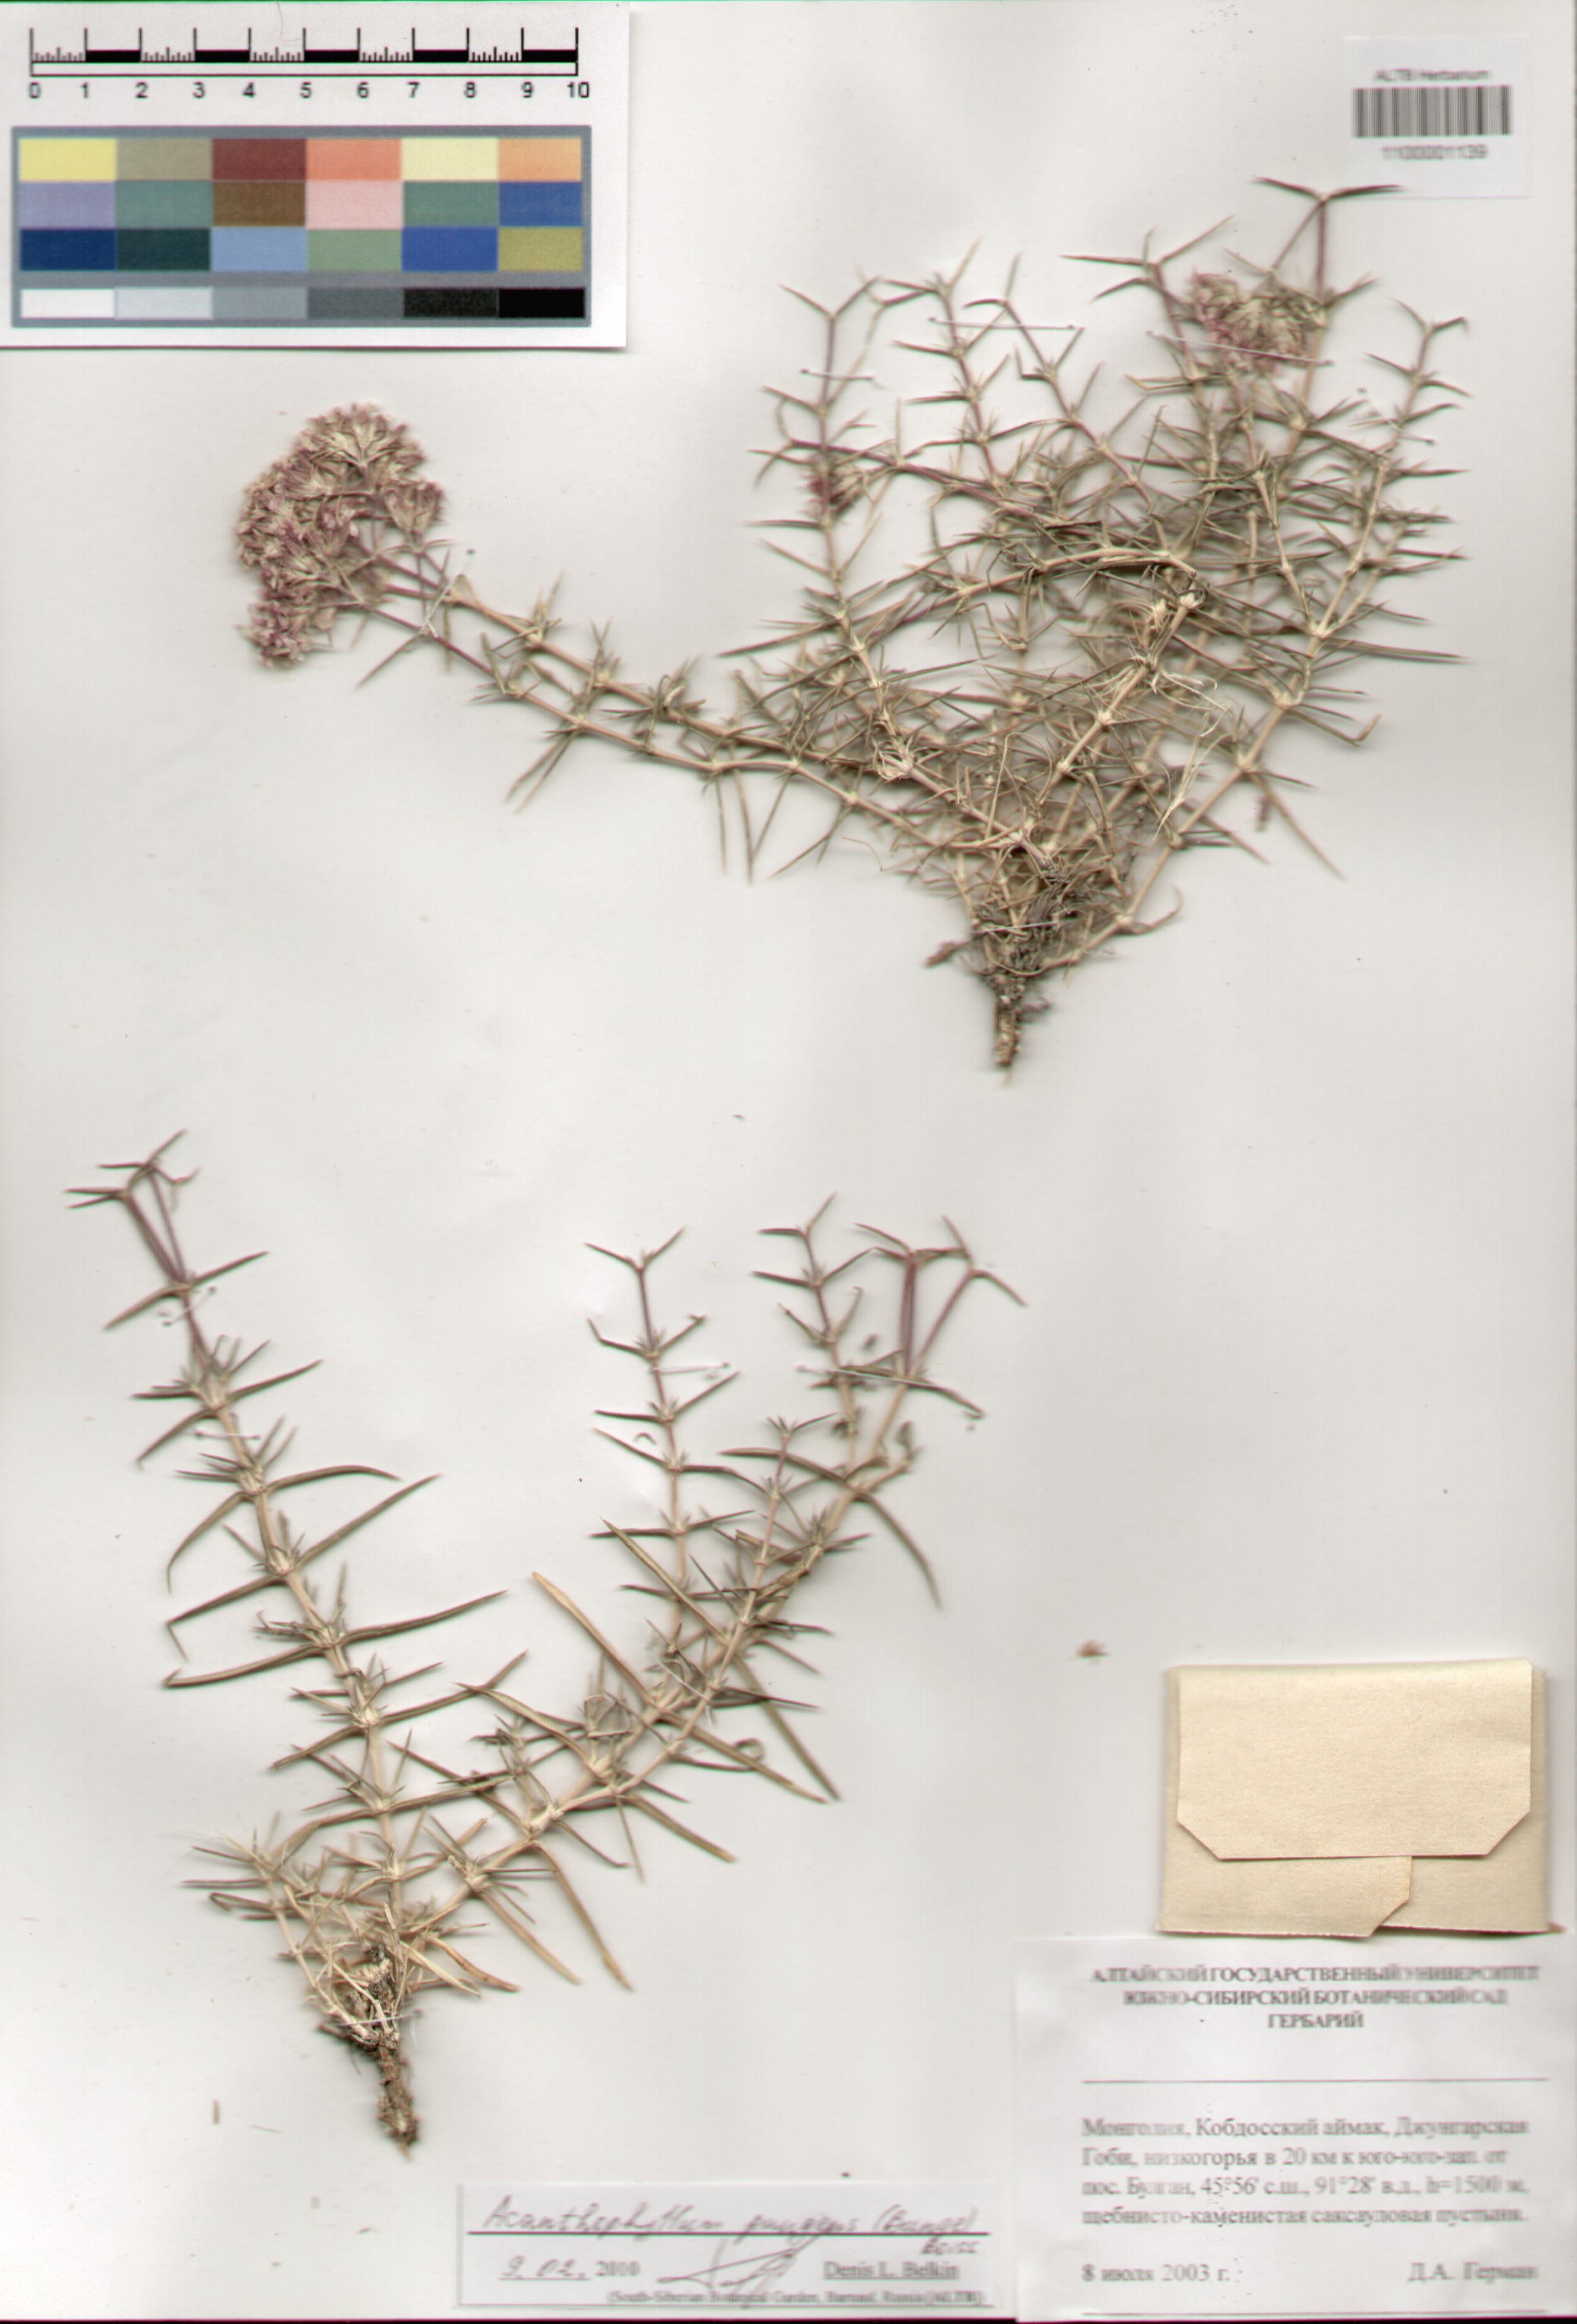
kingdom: Plantae
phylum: Tracheophyta
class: Magnoliopsida
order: Caryophyllales
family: Caryophyllaceae
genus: Acanthophyllum
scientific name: Acanthophyllum pungens
